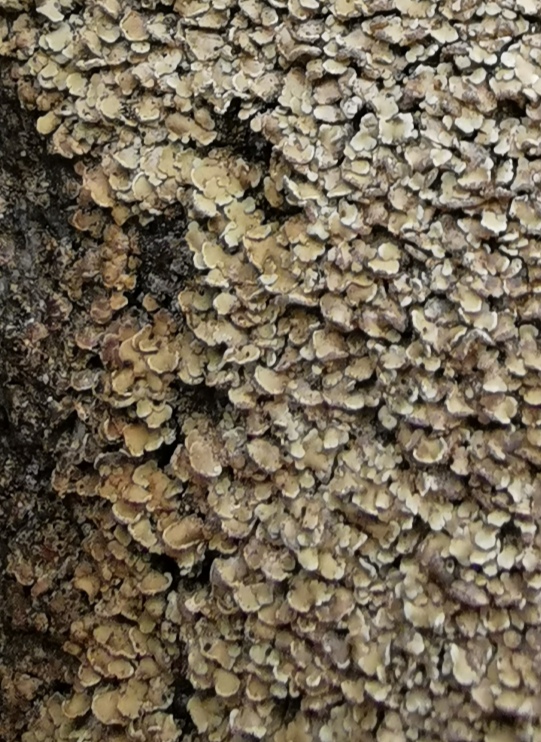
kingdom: Fungi
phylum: Ascomycota
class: Lecanoromycetes
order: Umbilicariales
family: Ophioparmaceae
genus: Hypocenomyce
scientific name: Hypocenomyce scalaris
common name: småskællet muslinglav
